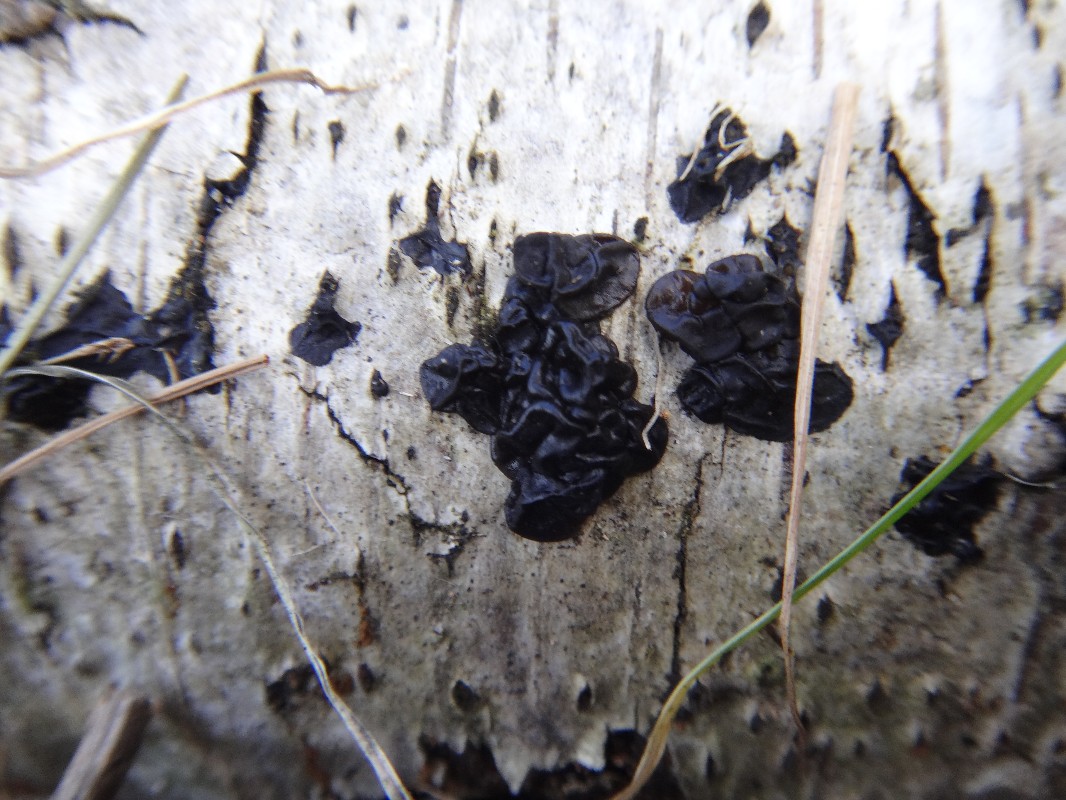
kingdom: Fungi
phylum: Basidiomycota
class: Agaricomycetes
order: Auriculariales
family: Auriculariaceae
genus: Exidia
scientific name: Exidia nigricans
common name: almindelig bævretop
